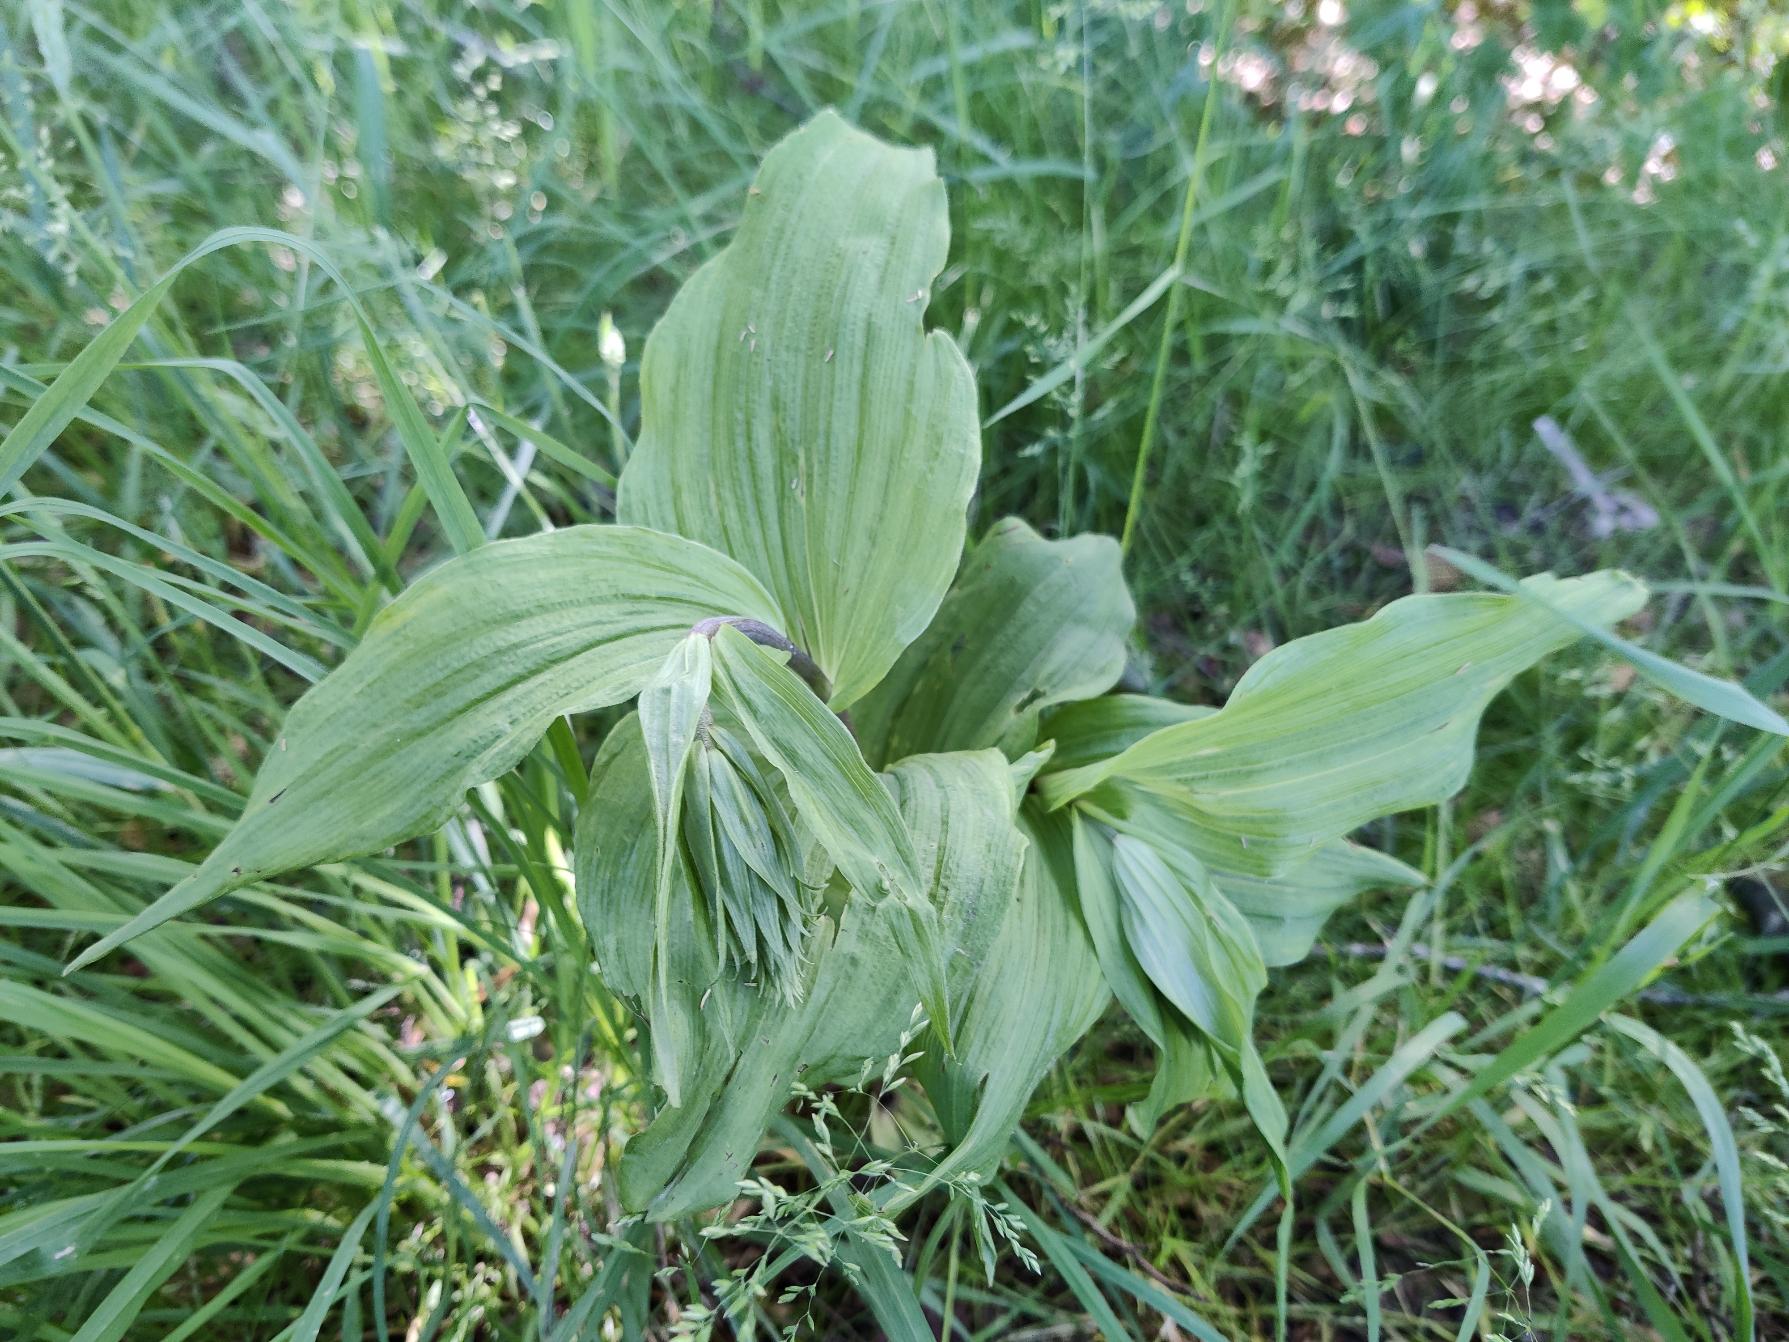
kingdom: Plantae
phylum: Tracheophyta
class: Liliopsida
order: Asparagales
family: Orchidaceae
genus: Epipactis
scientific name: Epipactis helleborine
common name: Skov-hullæbe
